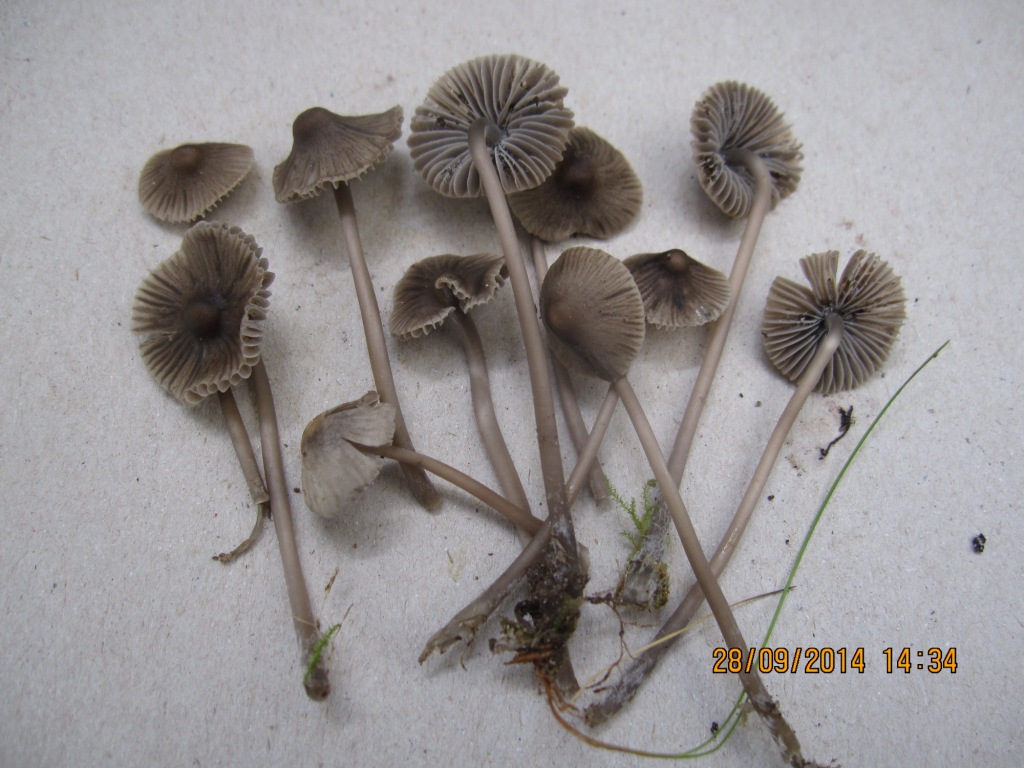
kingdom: Fungi
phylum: Basidiomycota
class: Agaricomycetes
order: Agaricales
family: Mycenaceae
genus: Mycena
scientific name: Mycena aetites
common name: plæne-huesvamp
